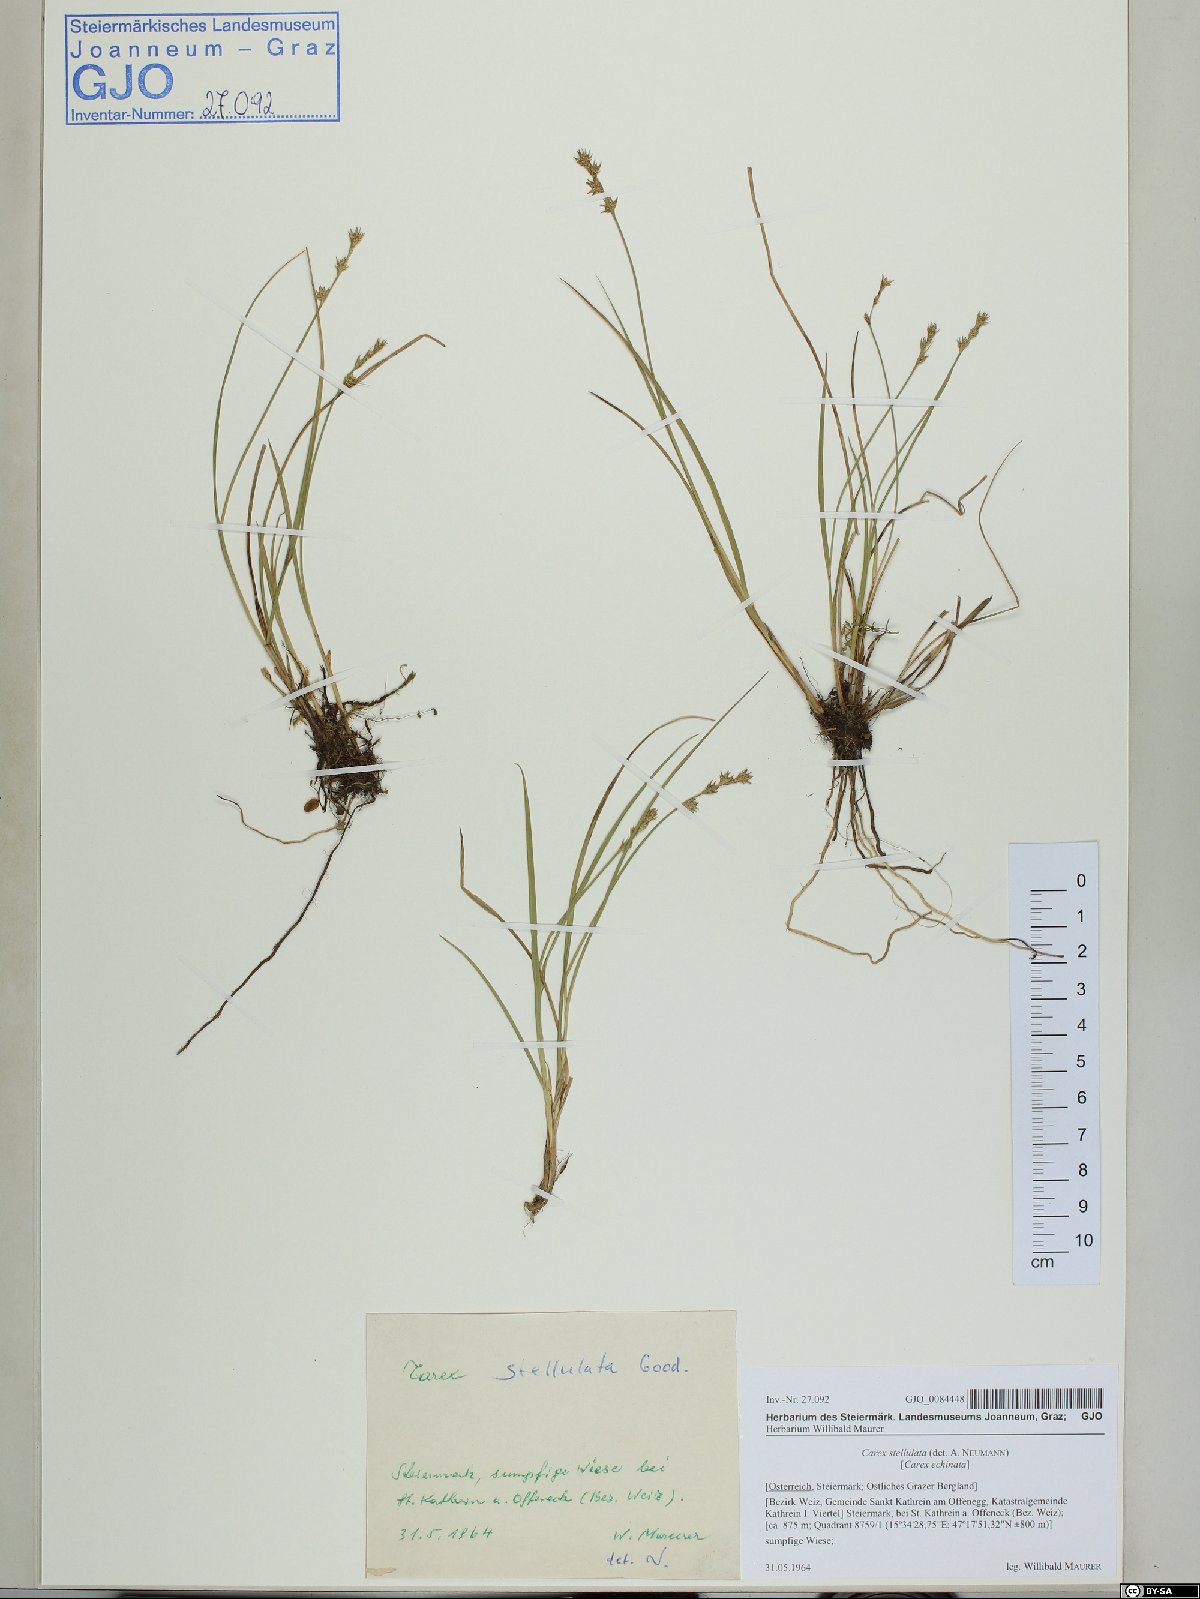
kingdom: Plantae
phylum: Tracheophyta
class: Liliopsida
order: Poales
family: Cyperaceae
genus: Carex
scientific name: Carex echinata
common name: Star sedge
